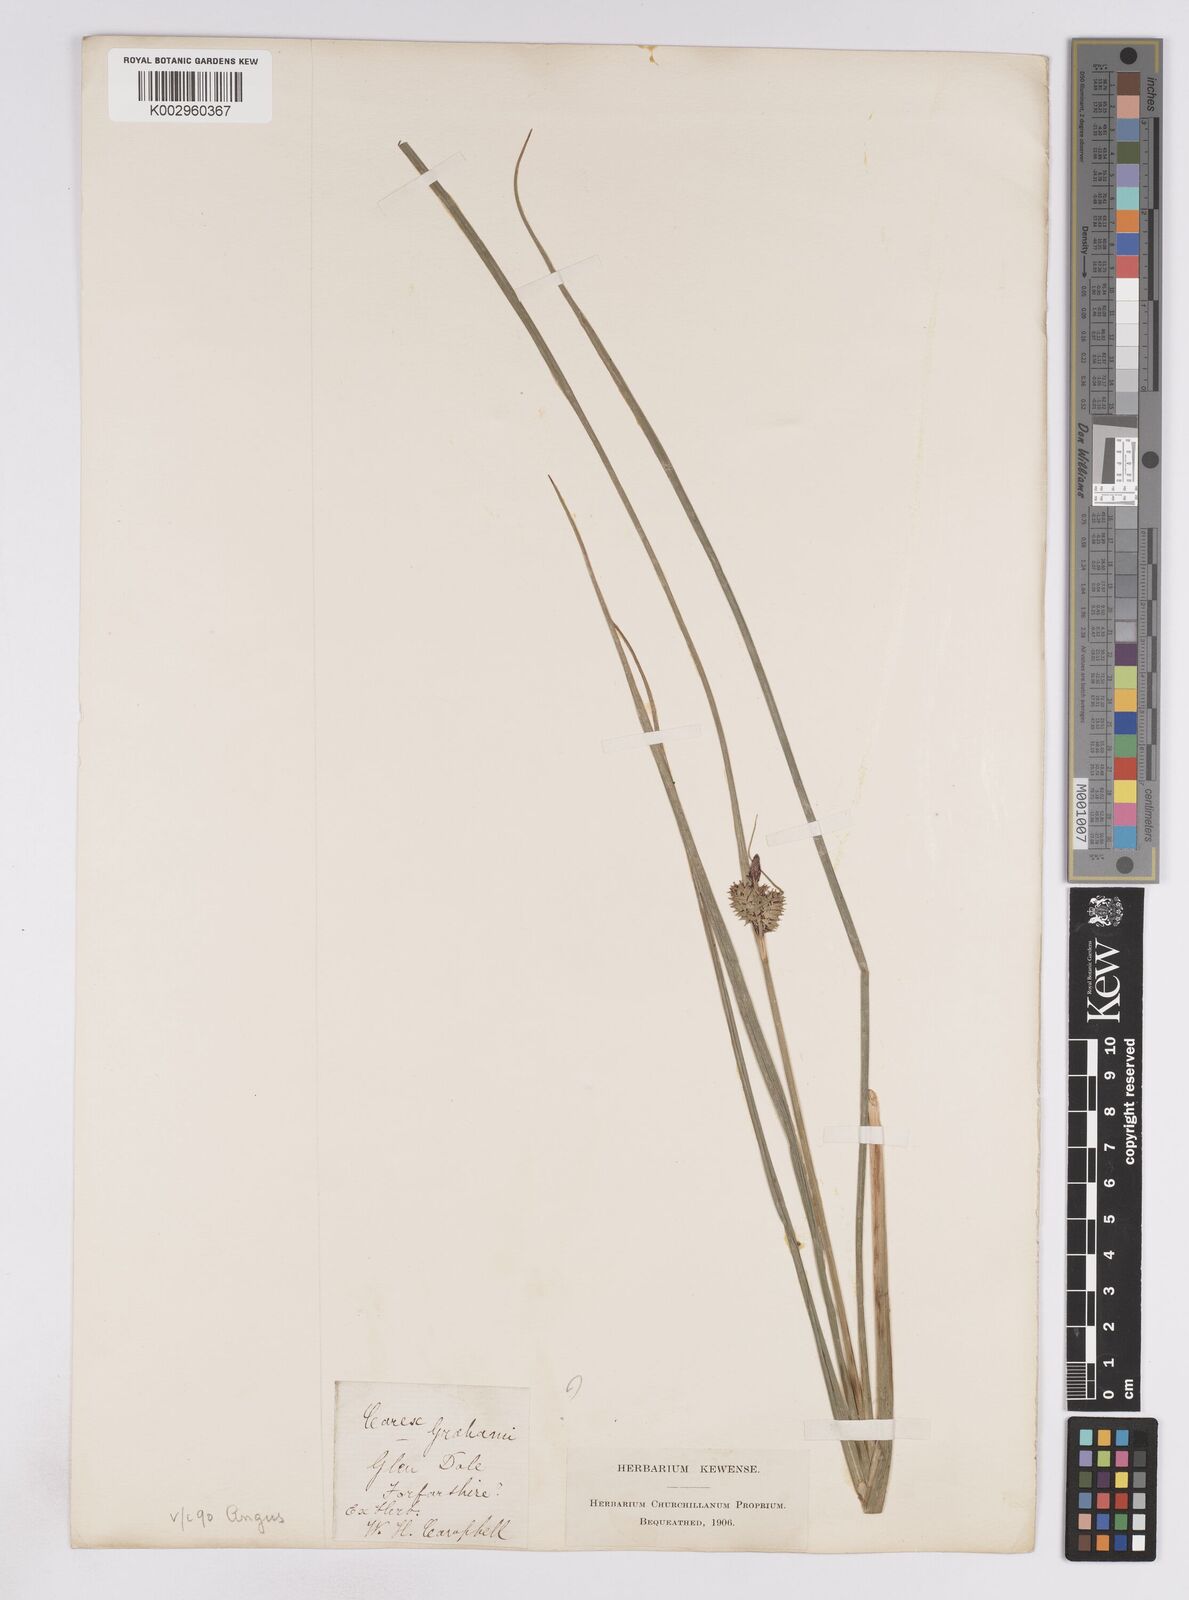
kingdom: Plantae
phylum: Tracheophyta
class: Liliopsida
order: Poales
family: Cyperaceae
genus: Carex
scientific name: Carex vesicaria
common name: Bladder-sedge
